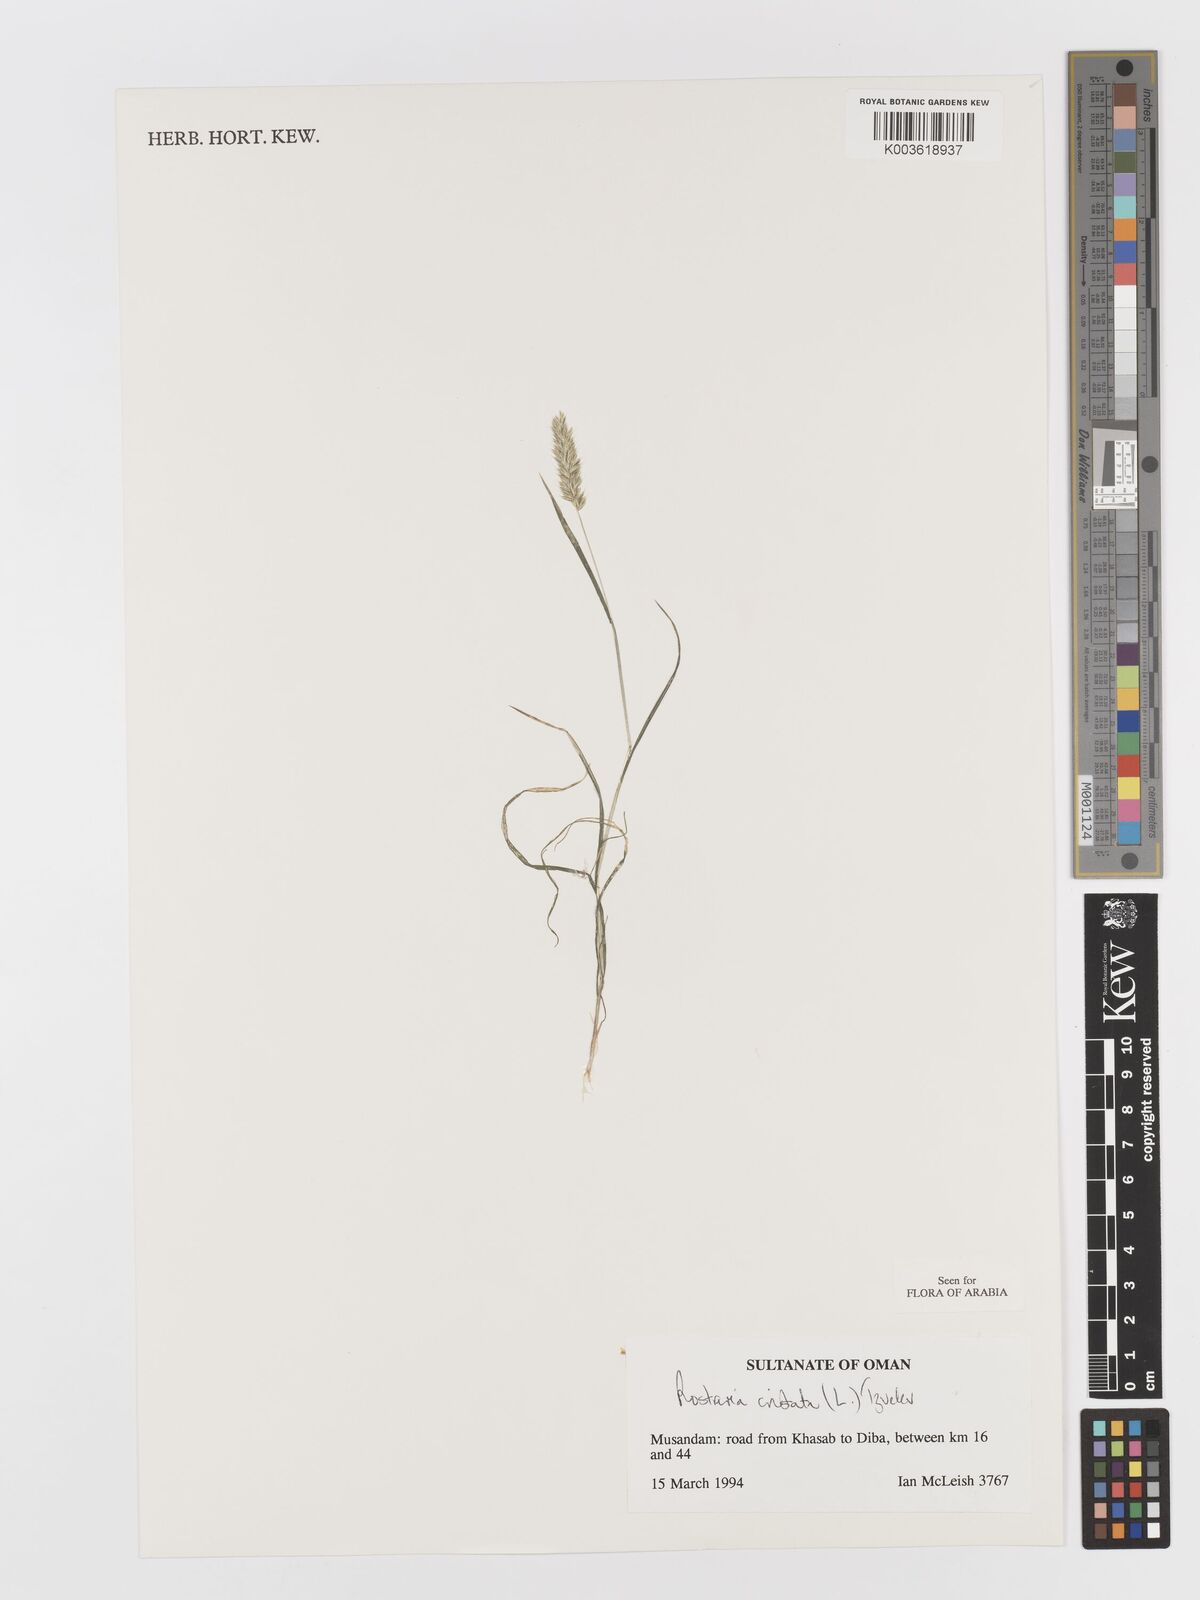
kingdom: Plantae
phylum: Tracheophyta
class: Liliopsida
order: Poales
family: Poaceae
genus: Rostraria
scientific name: Rostraria cristata
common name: Mediterranean hair-grass
